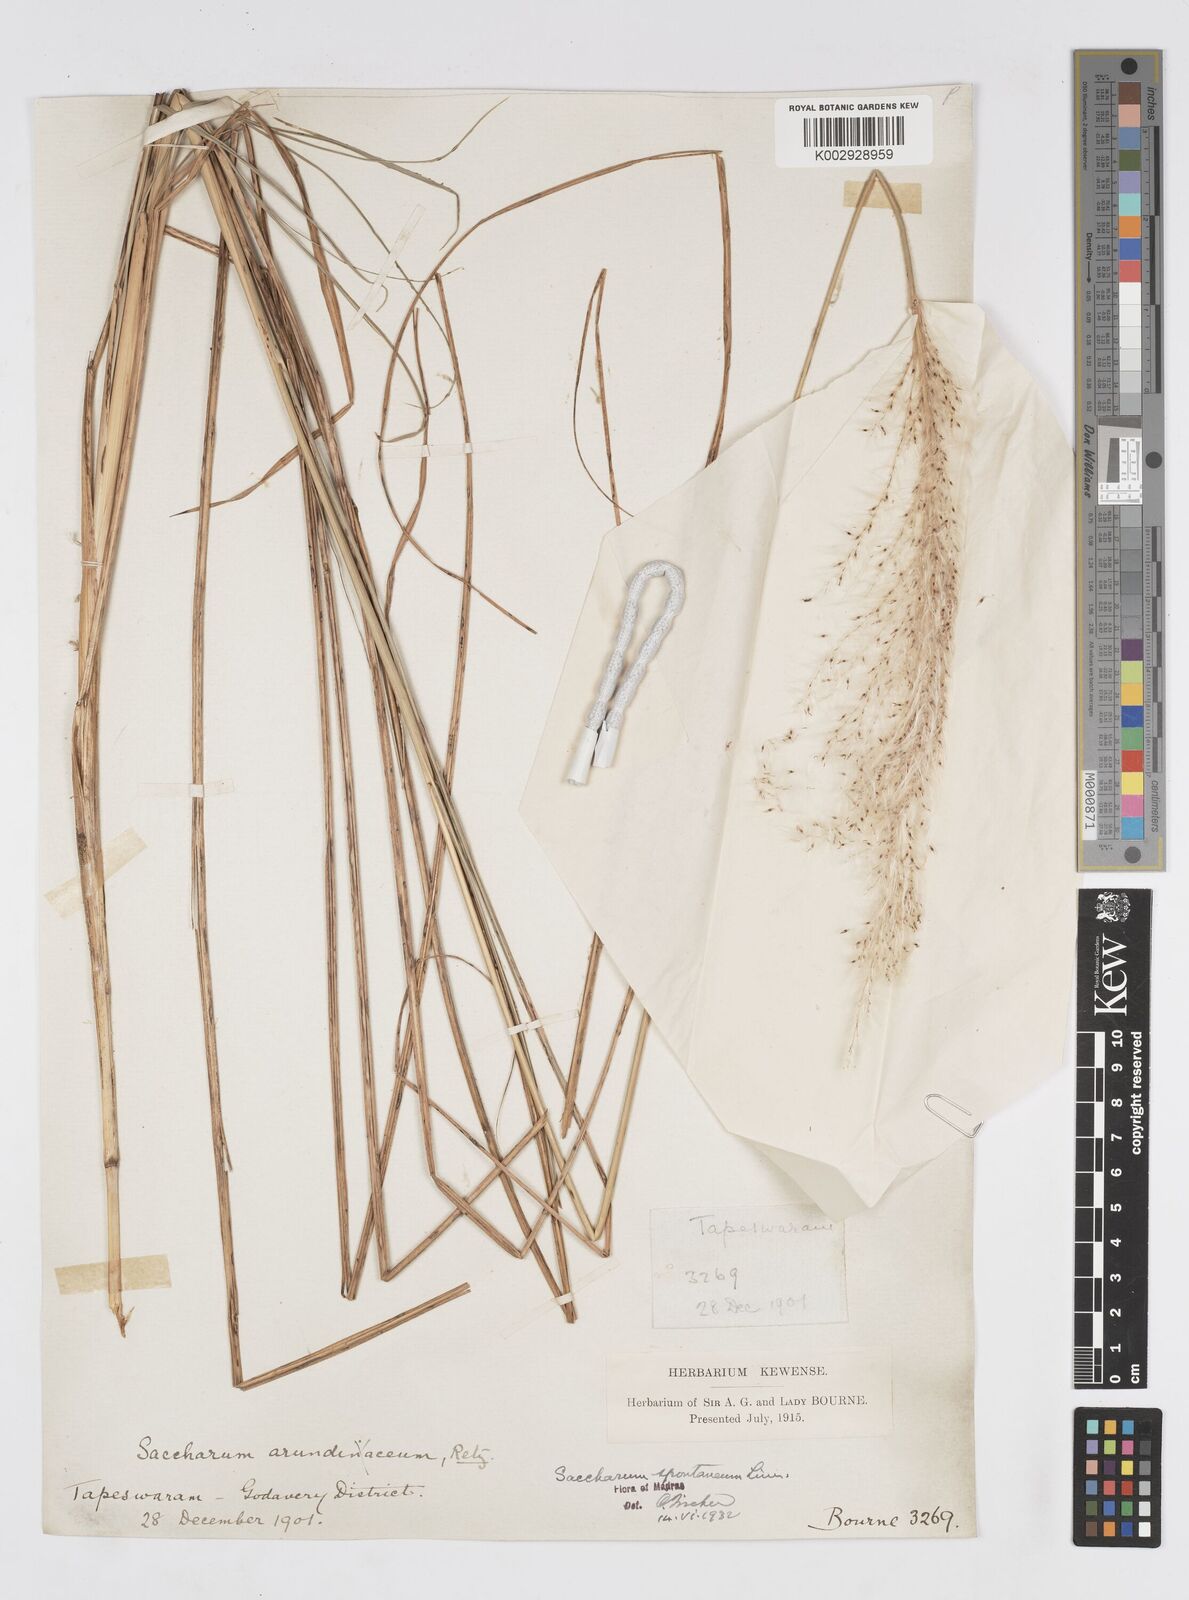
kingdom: Plantae
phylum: Tracheophyta
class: Liliopsida
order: Poales
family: Poaceae
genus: Saccharum
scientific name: Saccharum spontaneum
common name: Wild sugarcane
